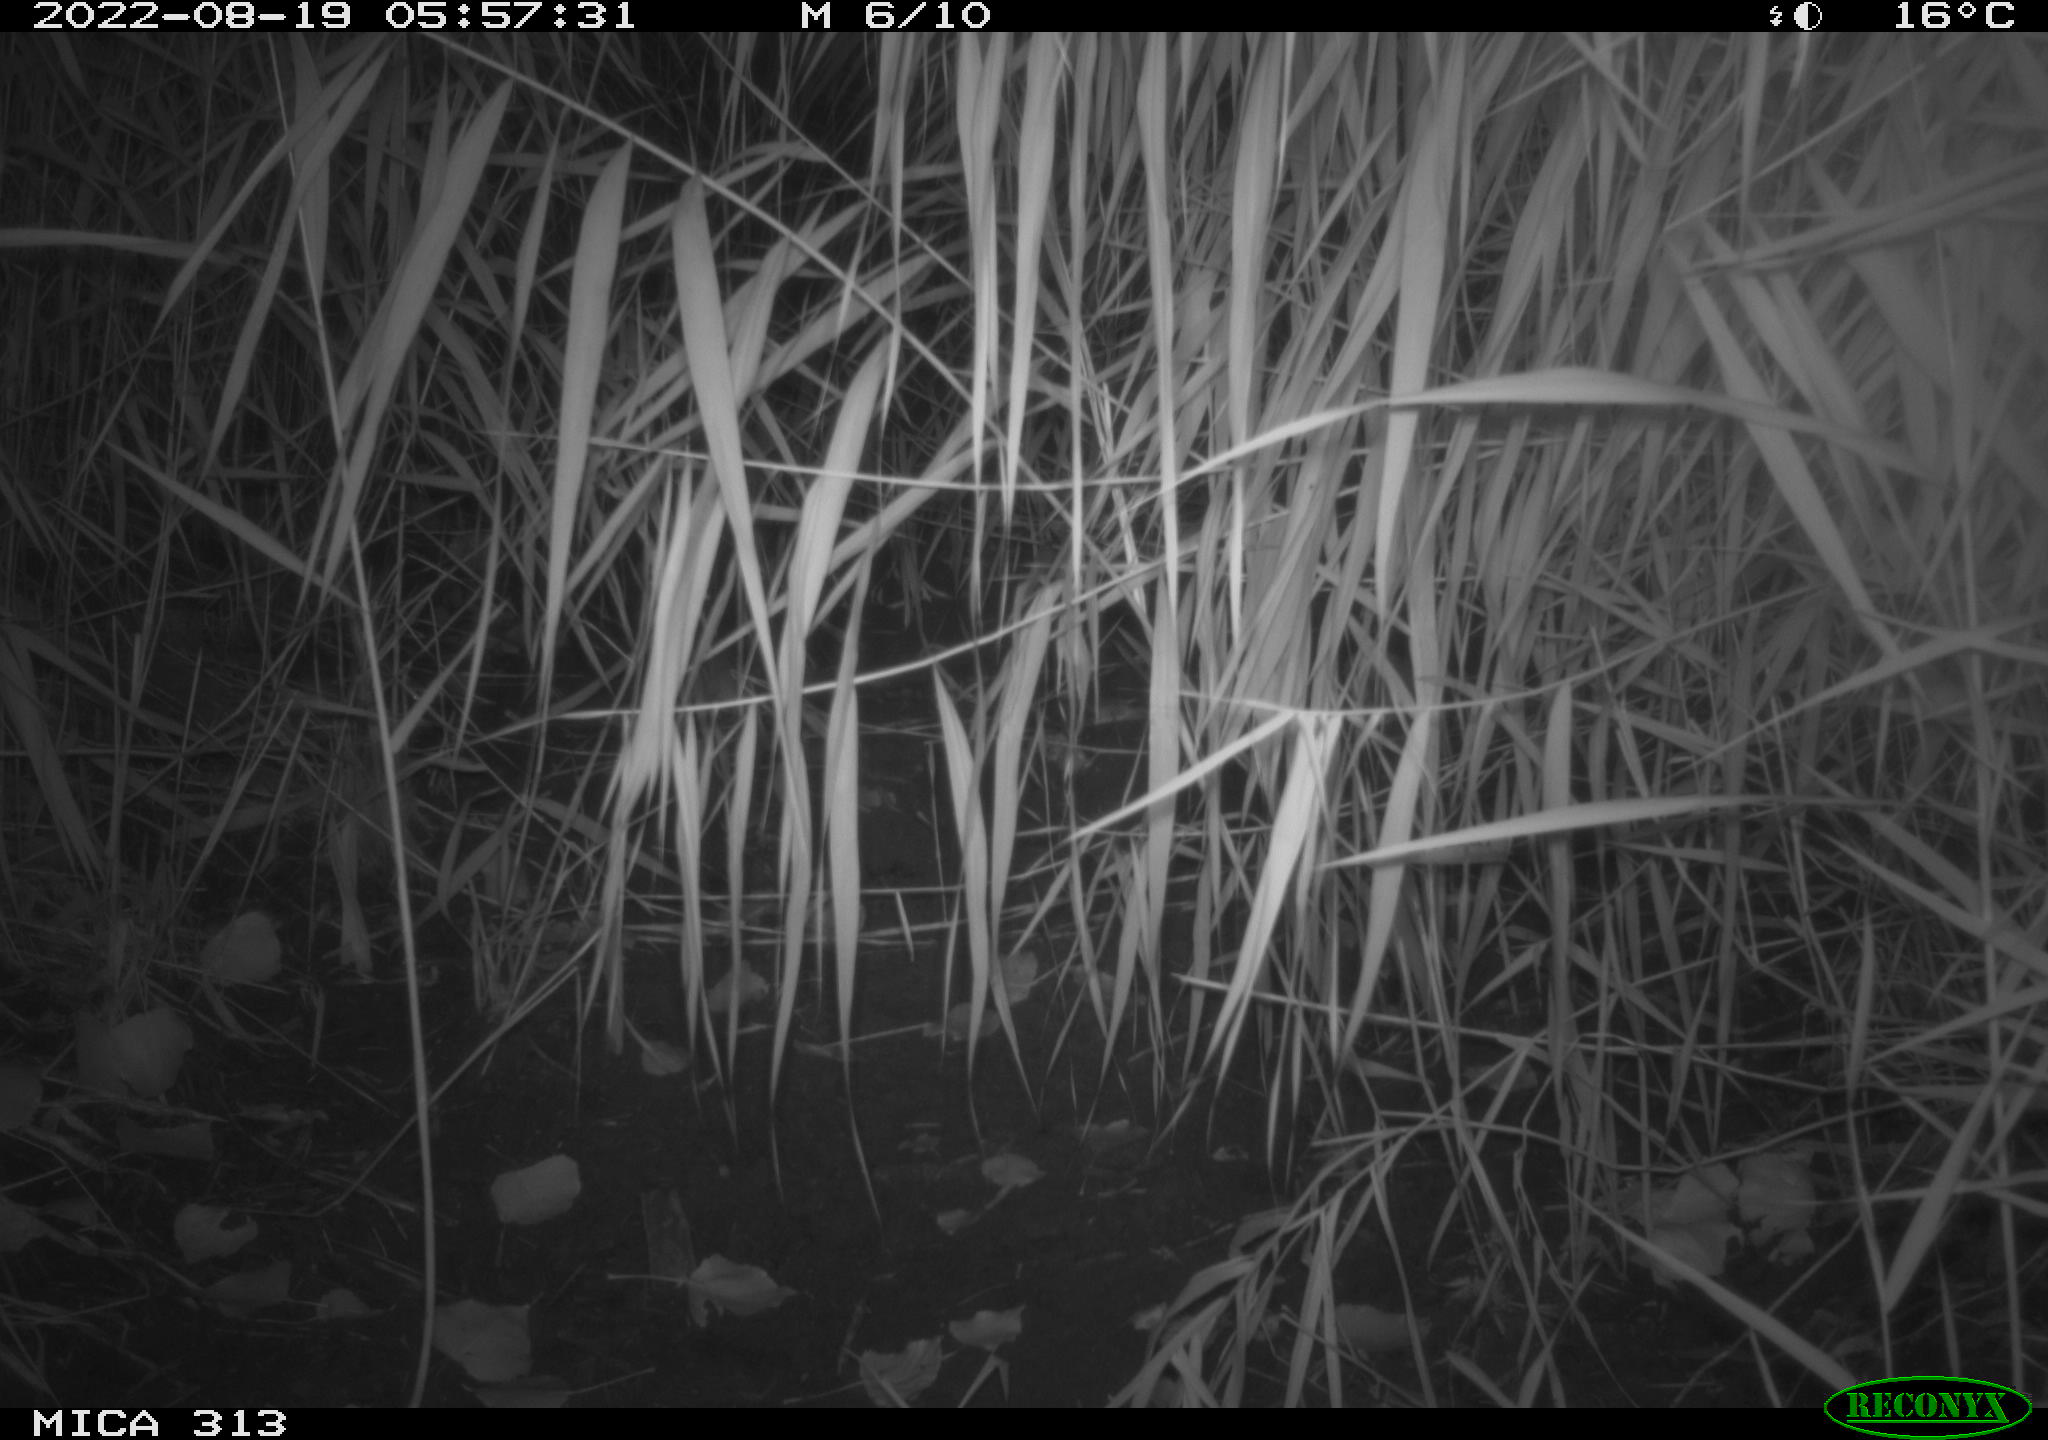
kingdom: Animalia
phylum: Chordata
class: Mammalia
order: Rodentia
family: Muridae
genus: Rattus
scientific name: Rattus norvegicus
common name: Brown rat
